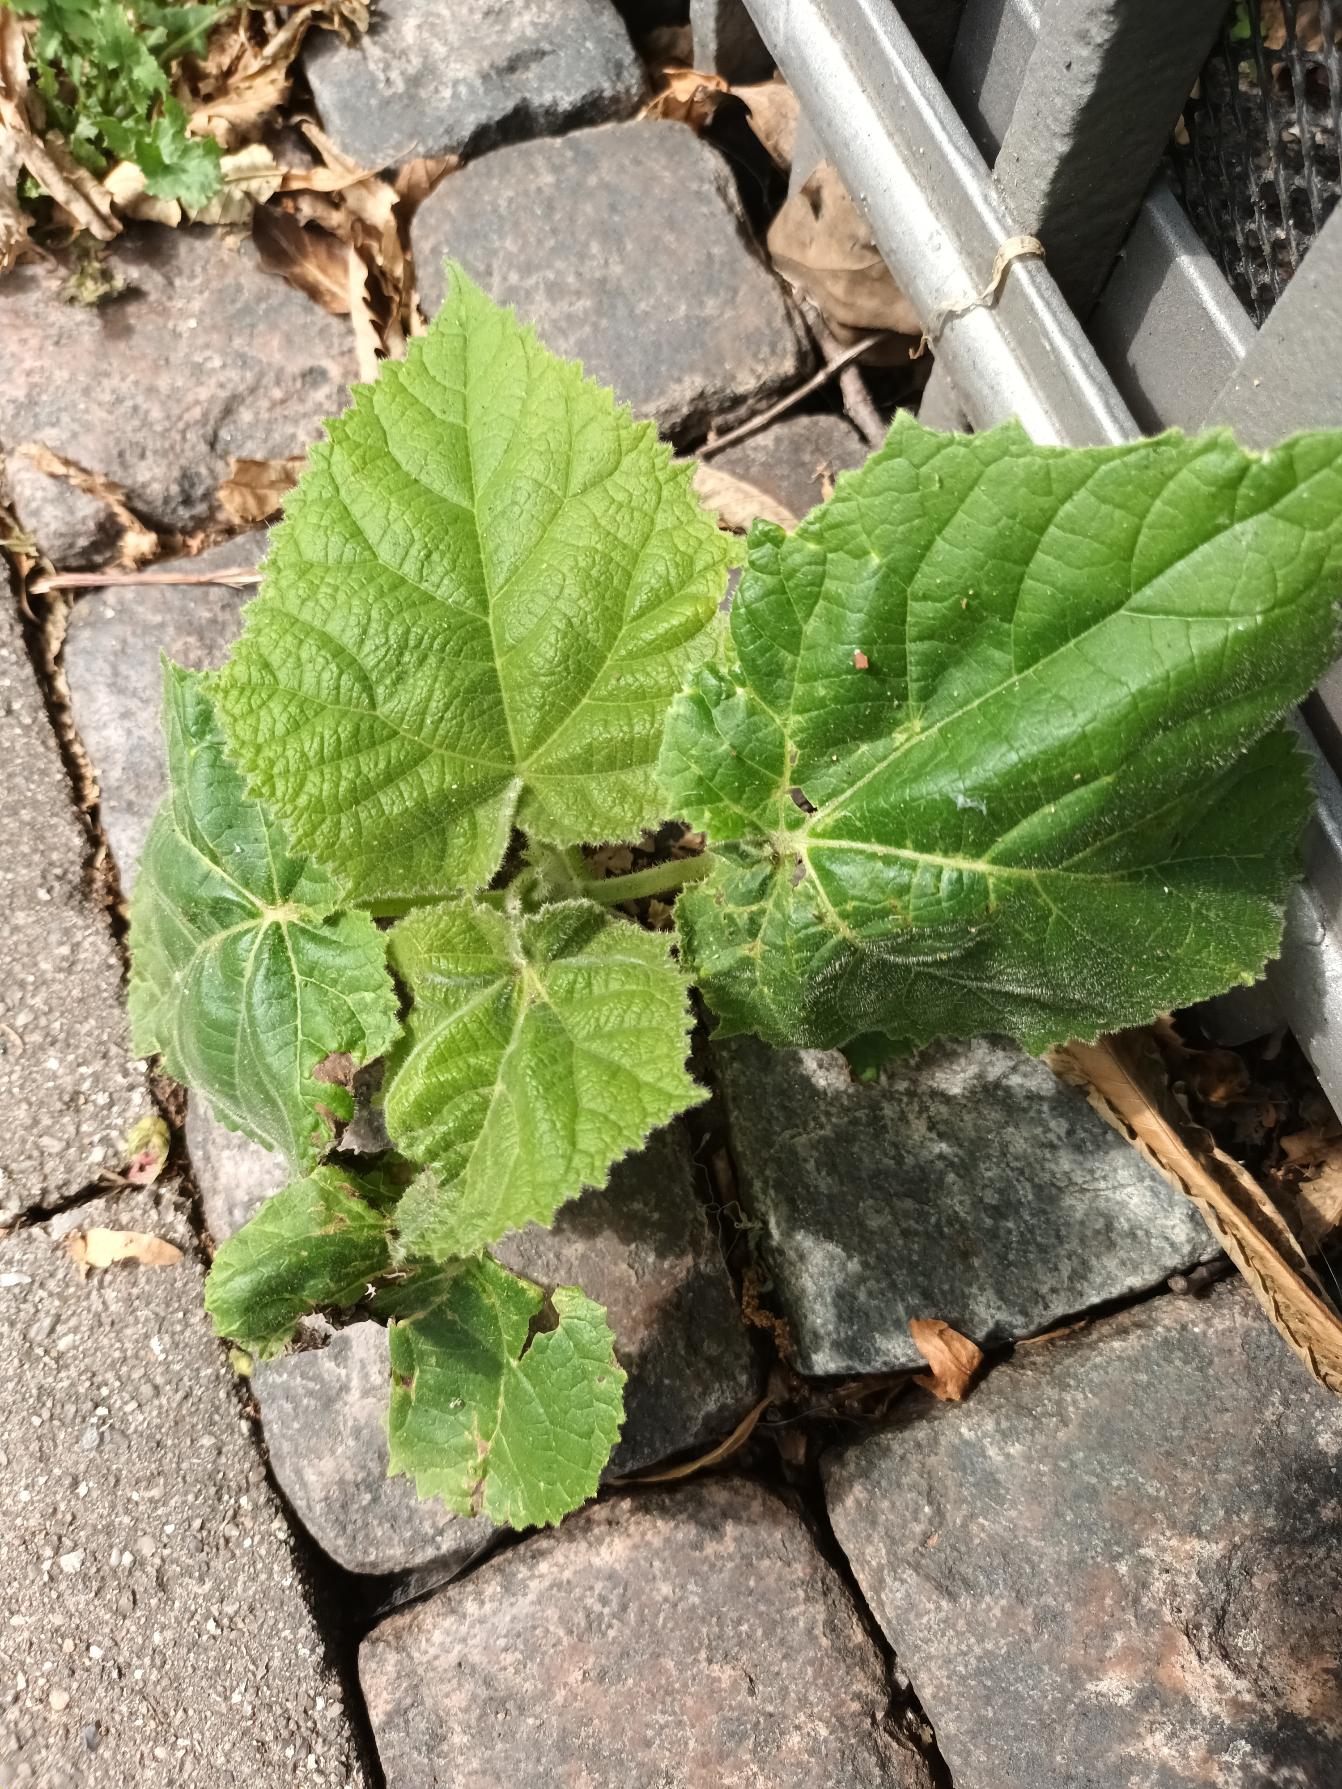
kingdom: Plantae
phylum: Tracheophyta
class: Magnoliopsida
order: Lamiales
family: Paulowniaceae
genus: Paulownia
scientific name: Paulownia tomentosa
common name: Kejsertræ
